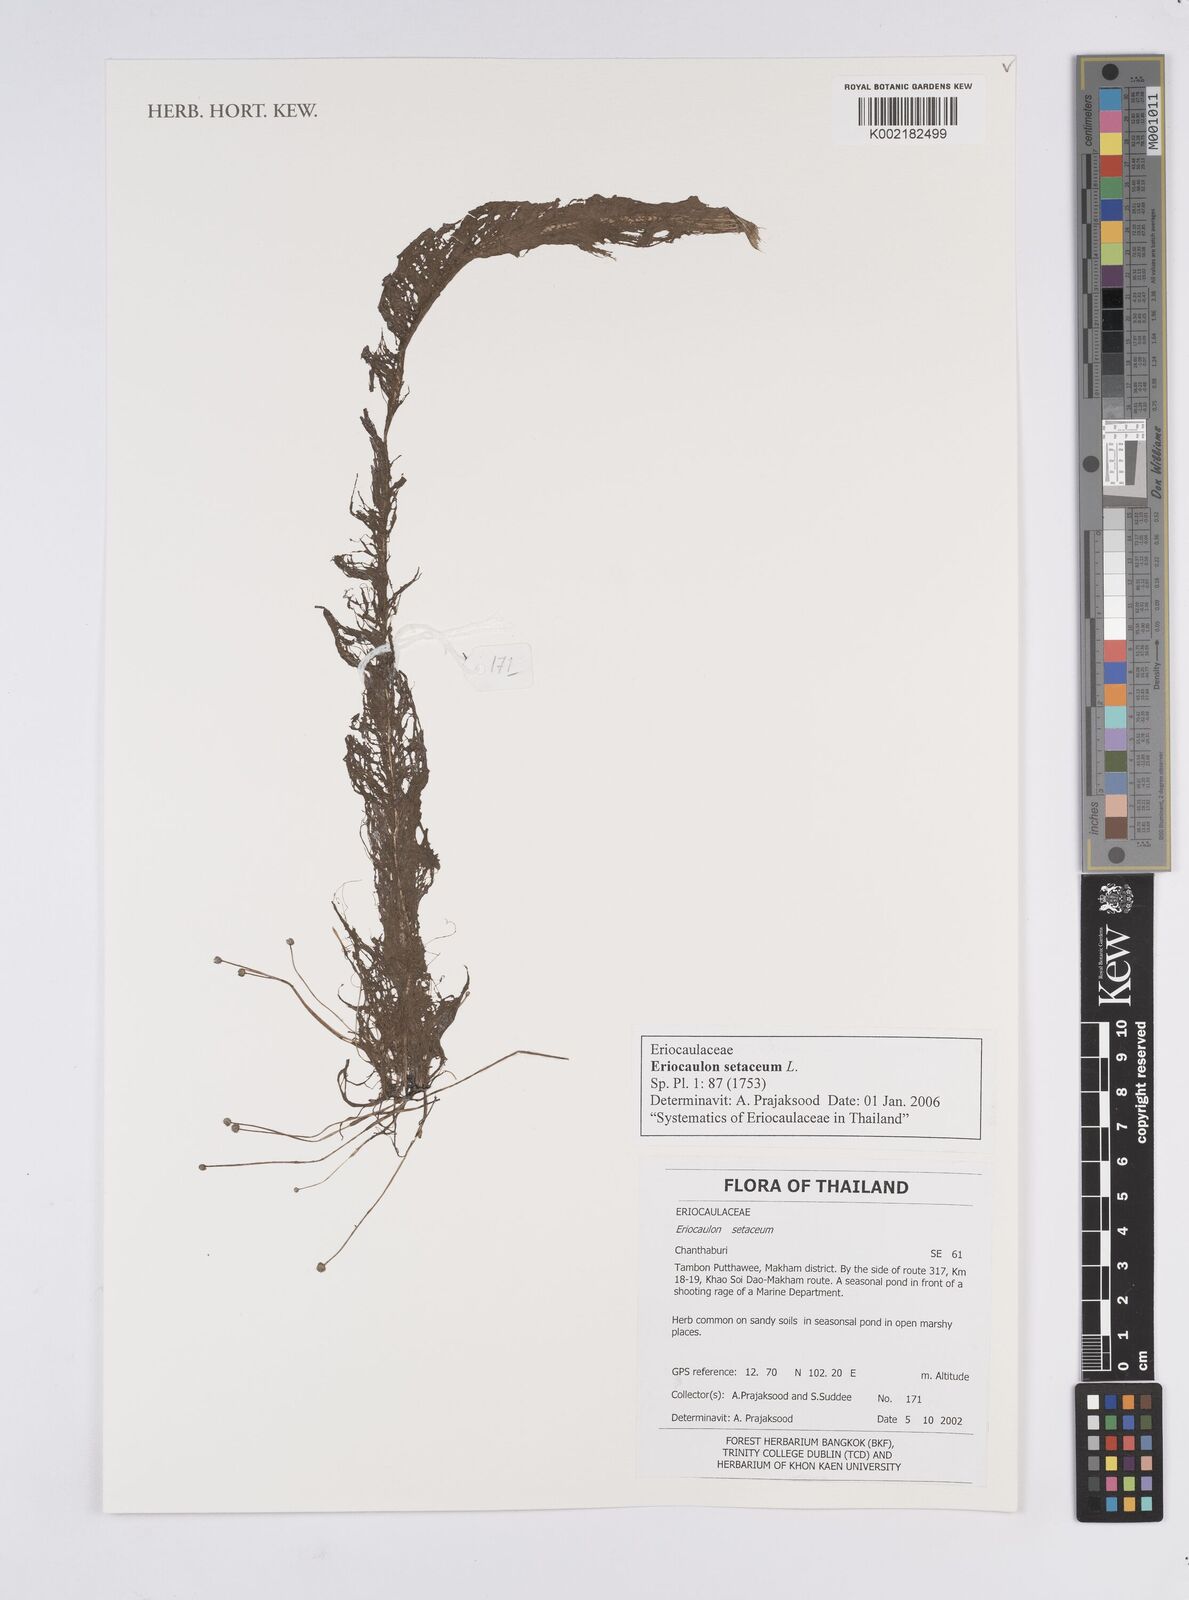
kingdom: Plantae
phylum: Tracheophyta
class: Liliopsida
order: Poales
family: Eriocaulaceae
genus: Eriocaulon
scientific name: Eriocaulon setaceum
